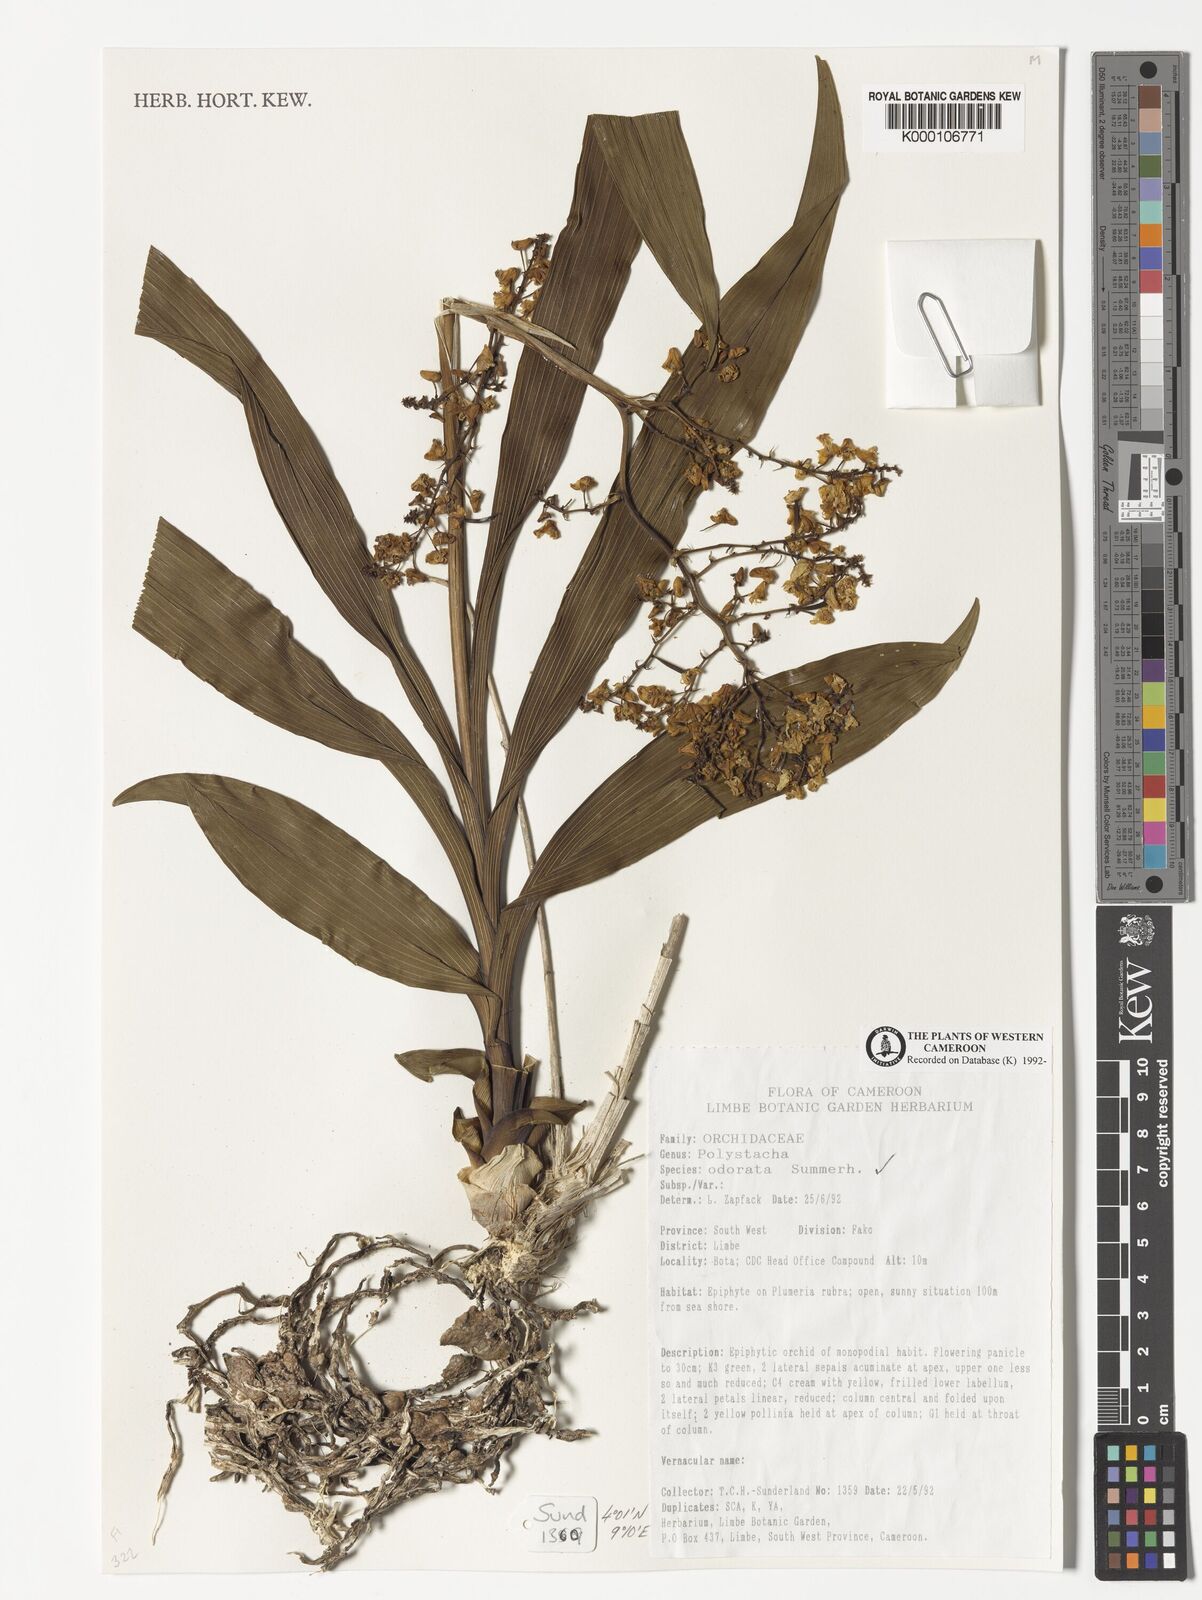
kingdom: Plantae
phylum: Tracheophyta
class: Liliopsida
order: Asparagales
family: Orchidaceae
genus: Polystachya
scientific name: Polystachya odorata
